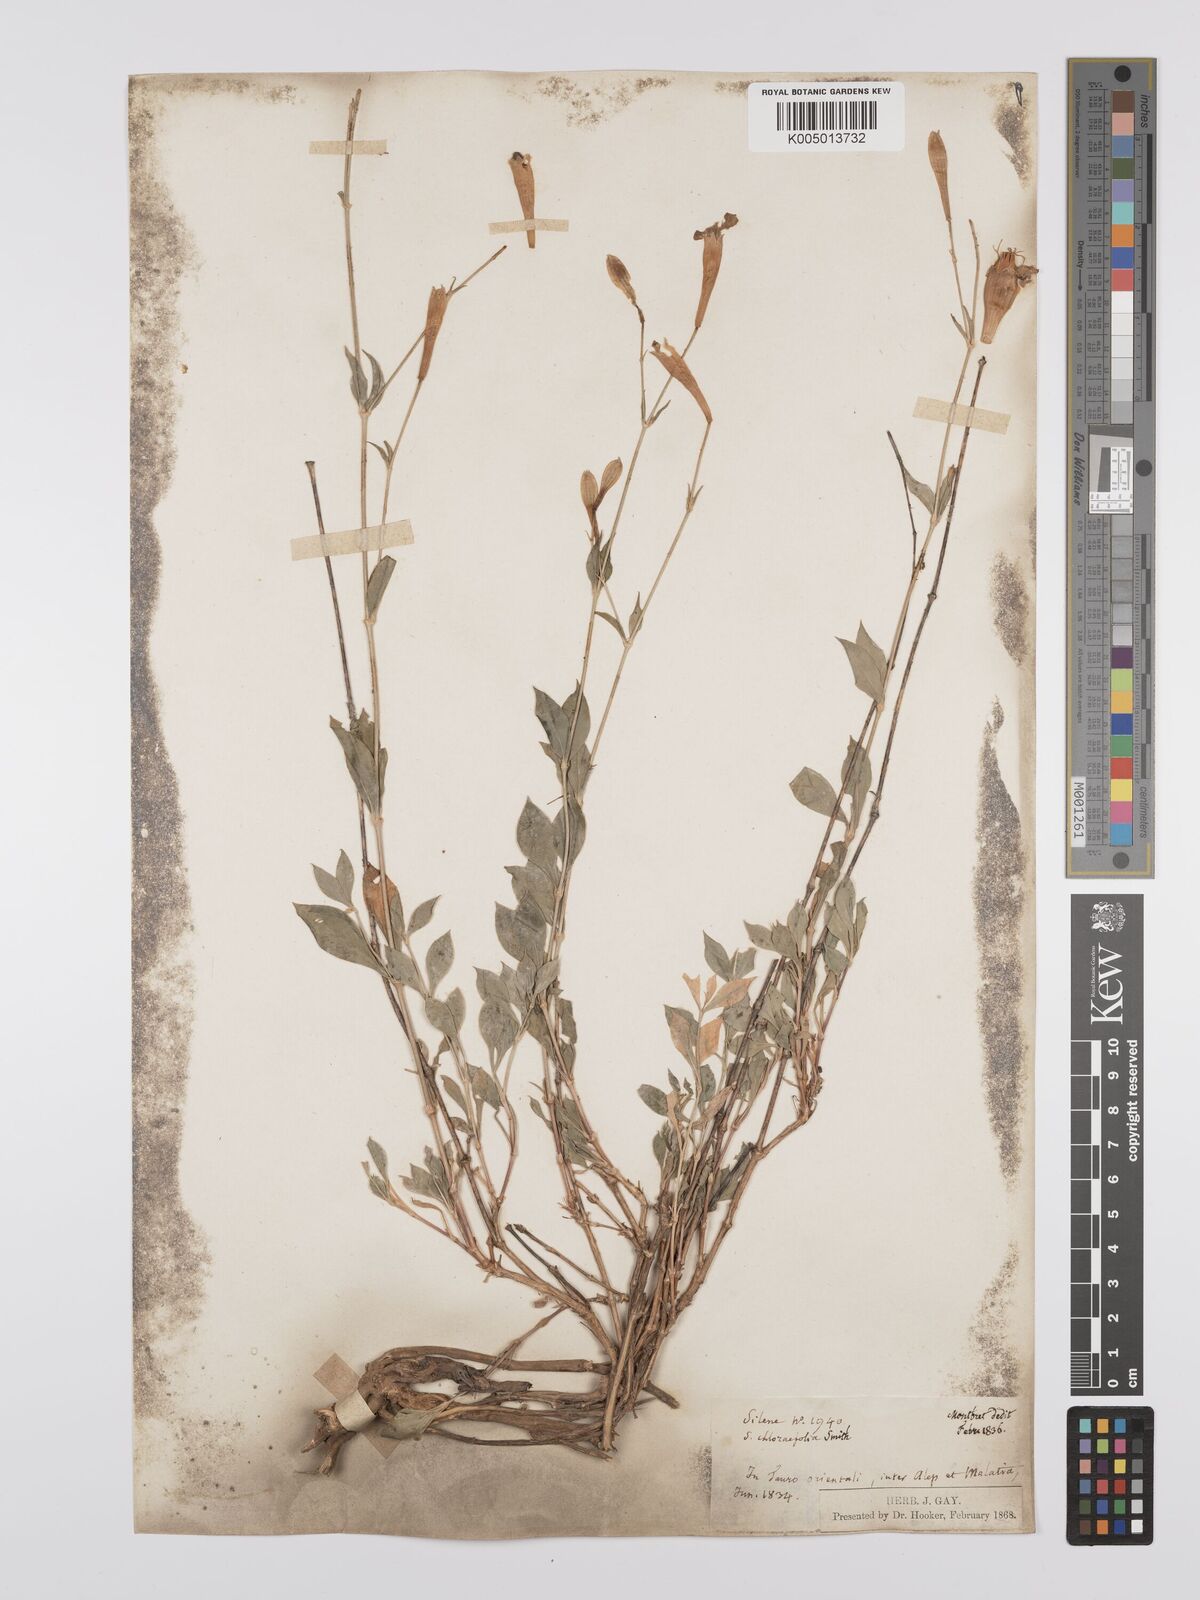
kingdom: Plantae
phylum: Tracheophyta
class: Magnoliopsida
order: Caryophyllales
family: Caryophyllaceae
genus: Silene
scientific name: Silene swertiifolia
